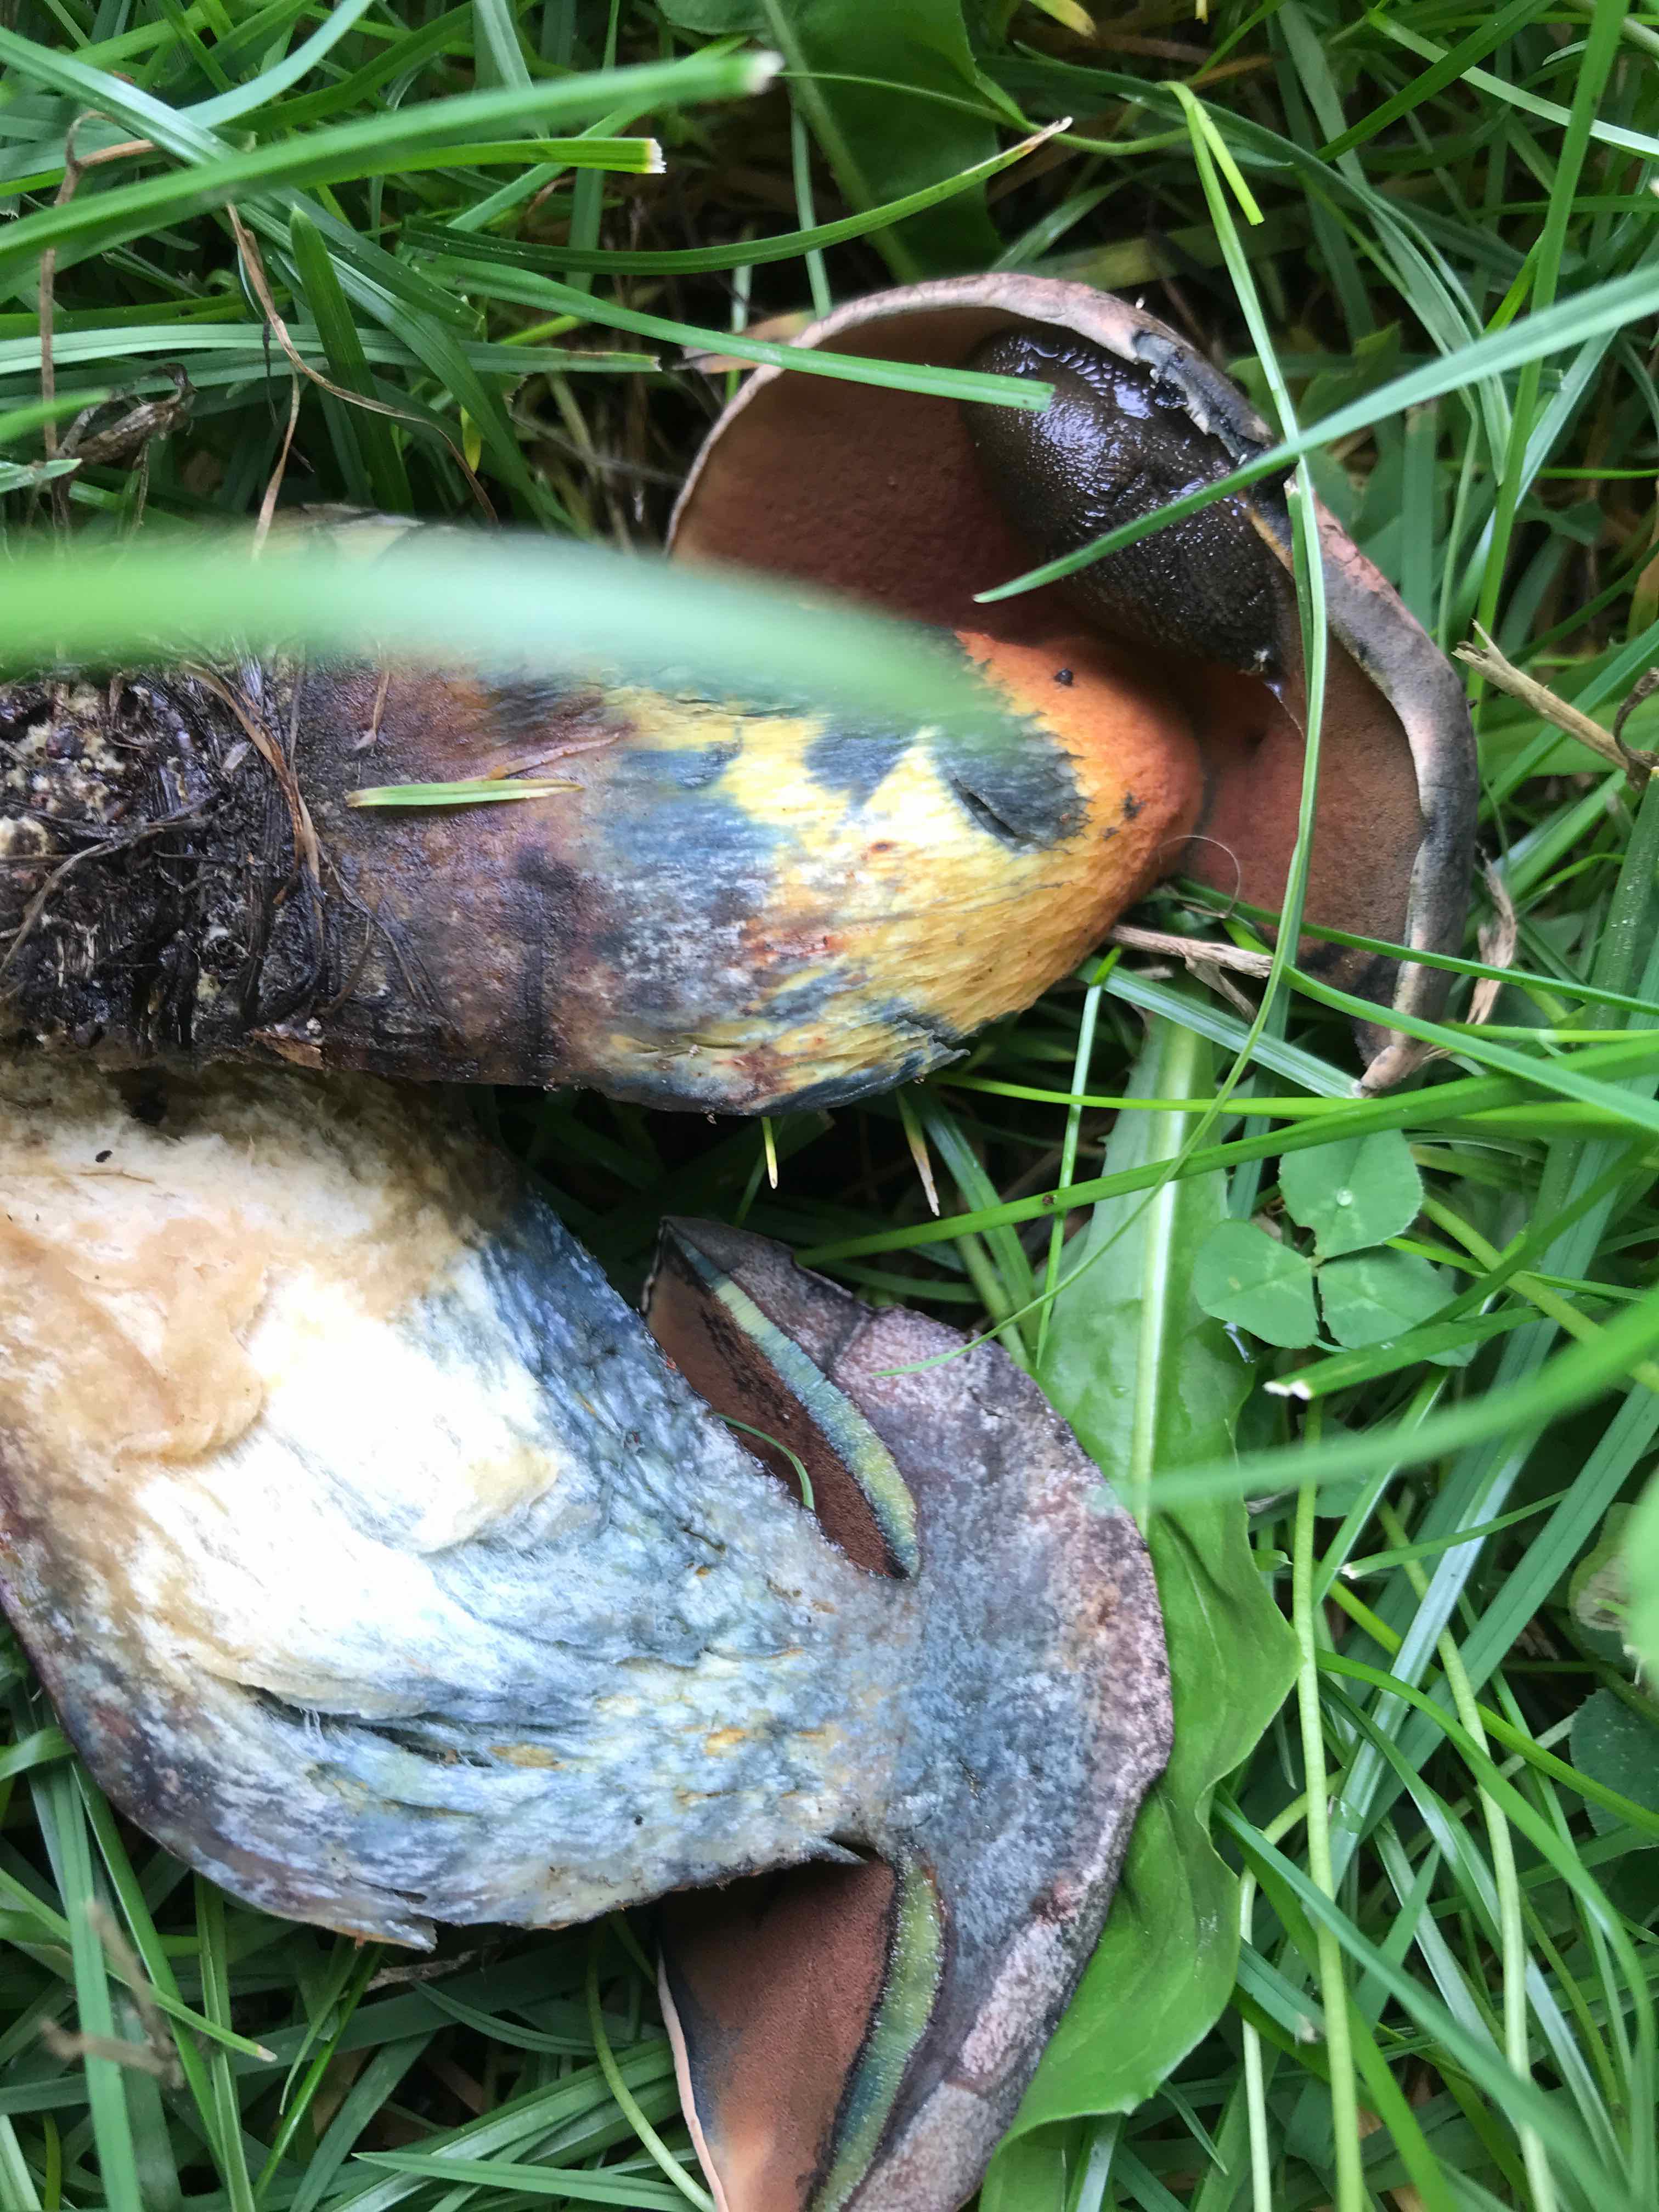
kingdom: Fungi
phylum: Basidiomycota
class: Agaricomycetes
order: Boletales
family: Boletaceae
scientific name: Boletaceae
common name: rørhatfamilien
